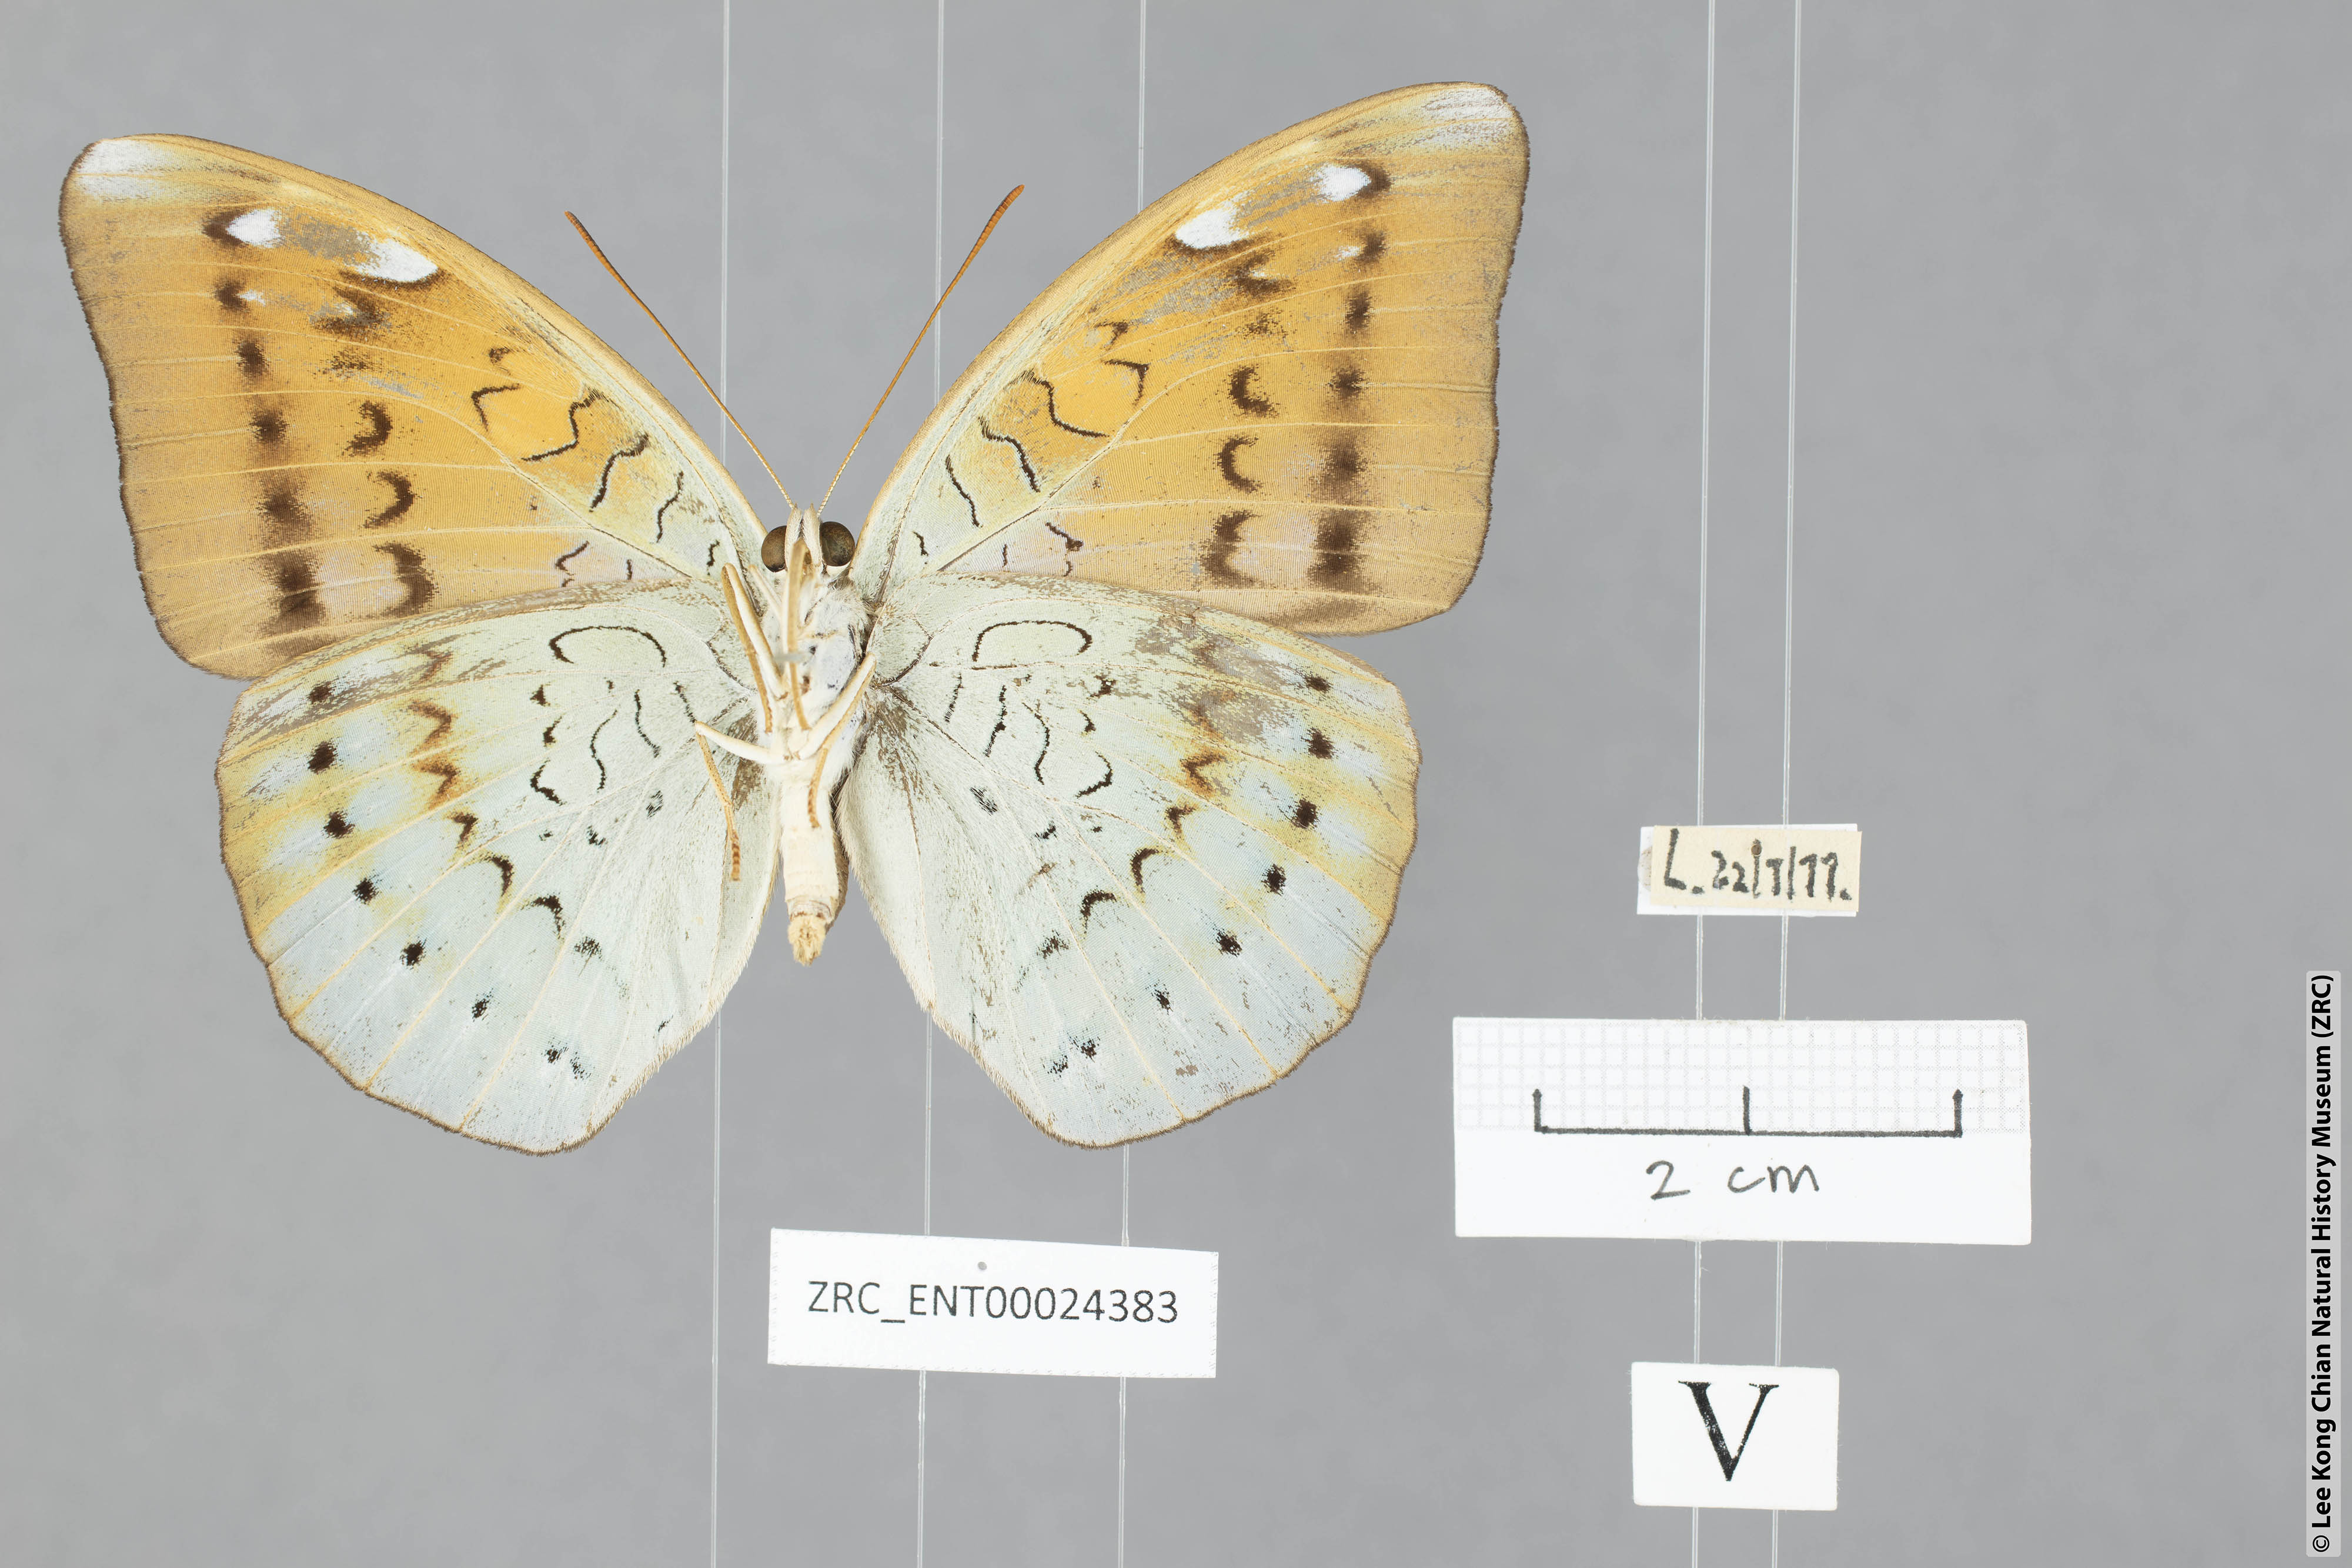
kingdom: Animalia
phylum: Arthropoda
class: Insecta
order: Lepidoptera
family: Nymphalidae
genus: Tanaecia
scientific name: Tanaecia julii
